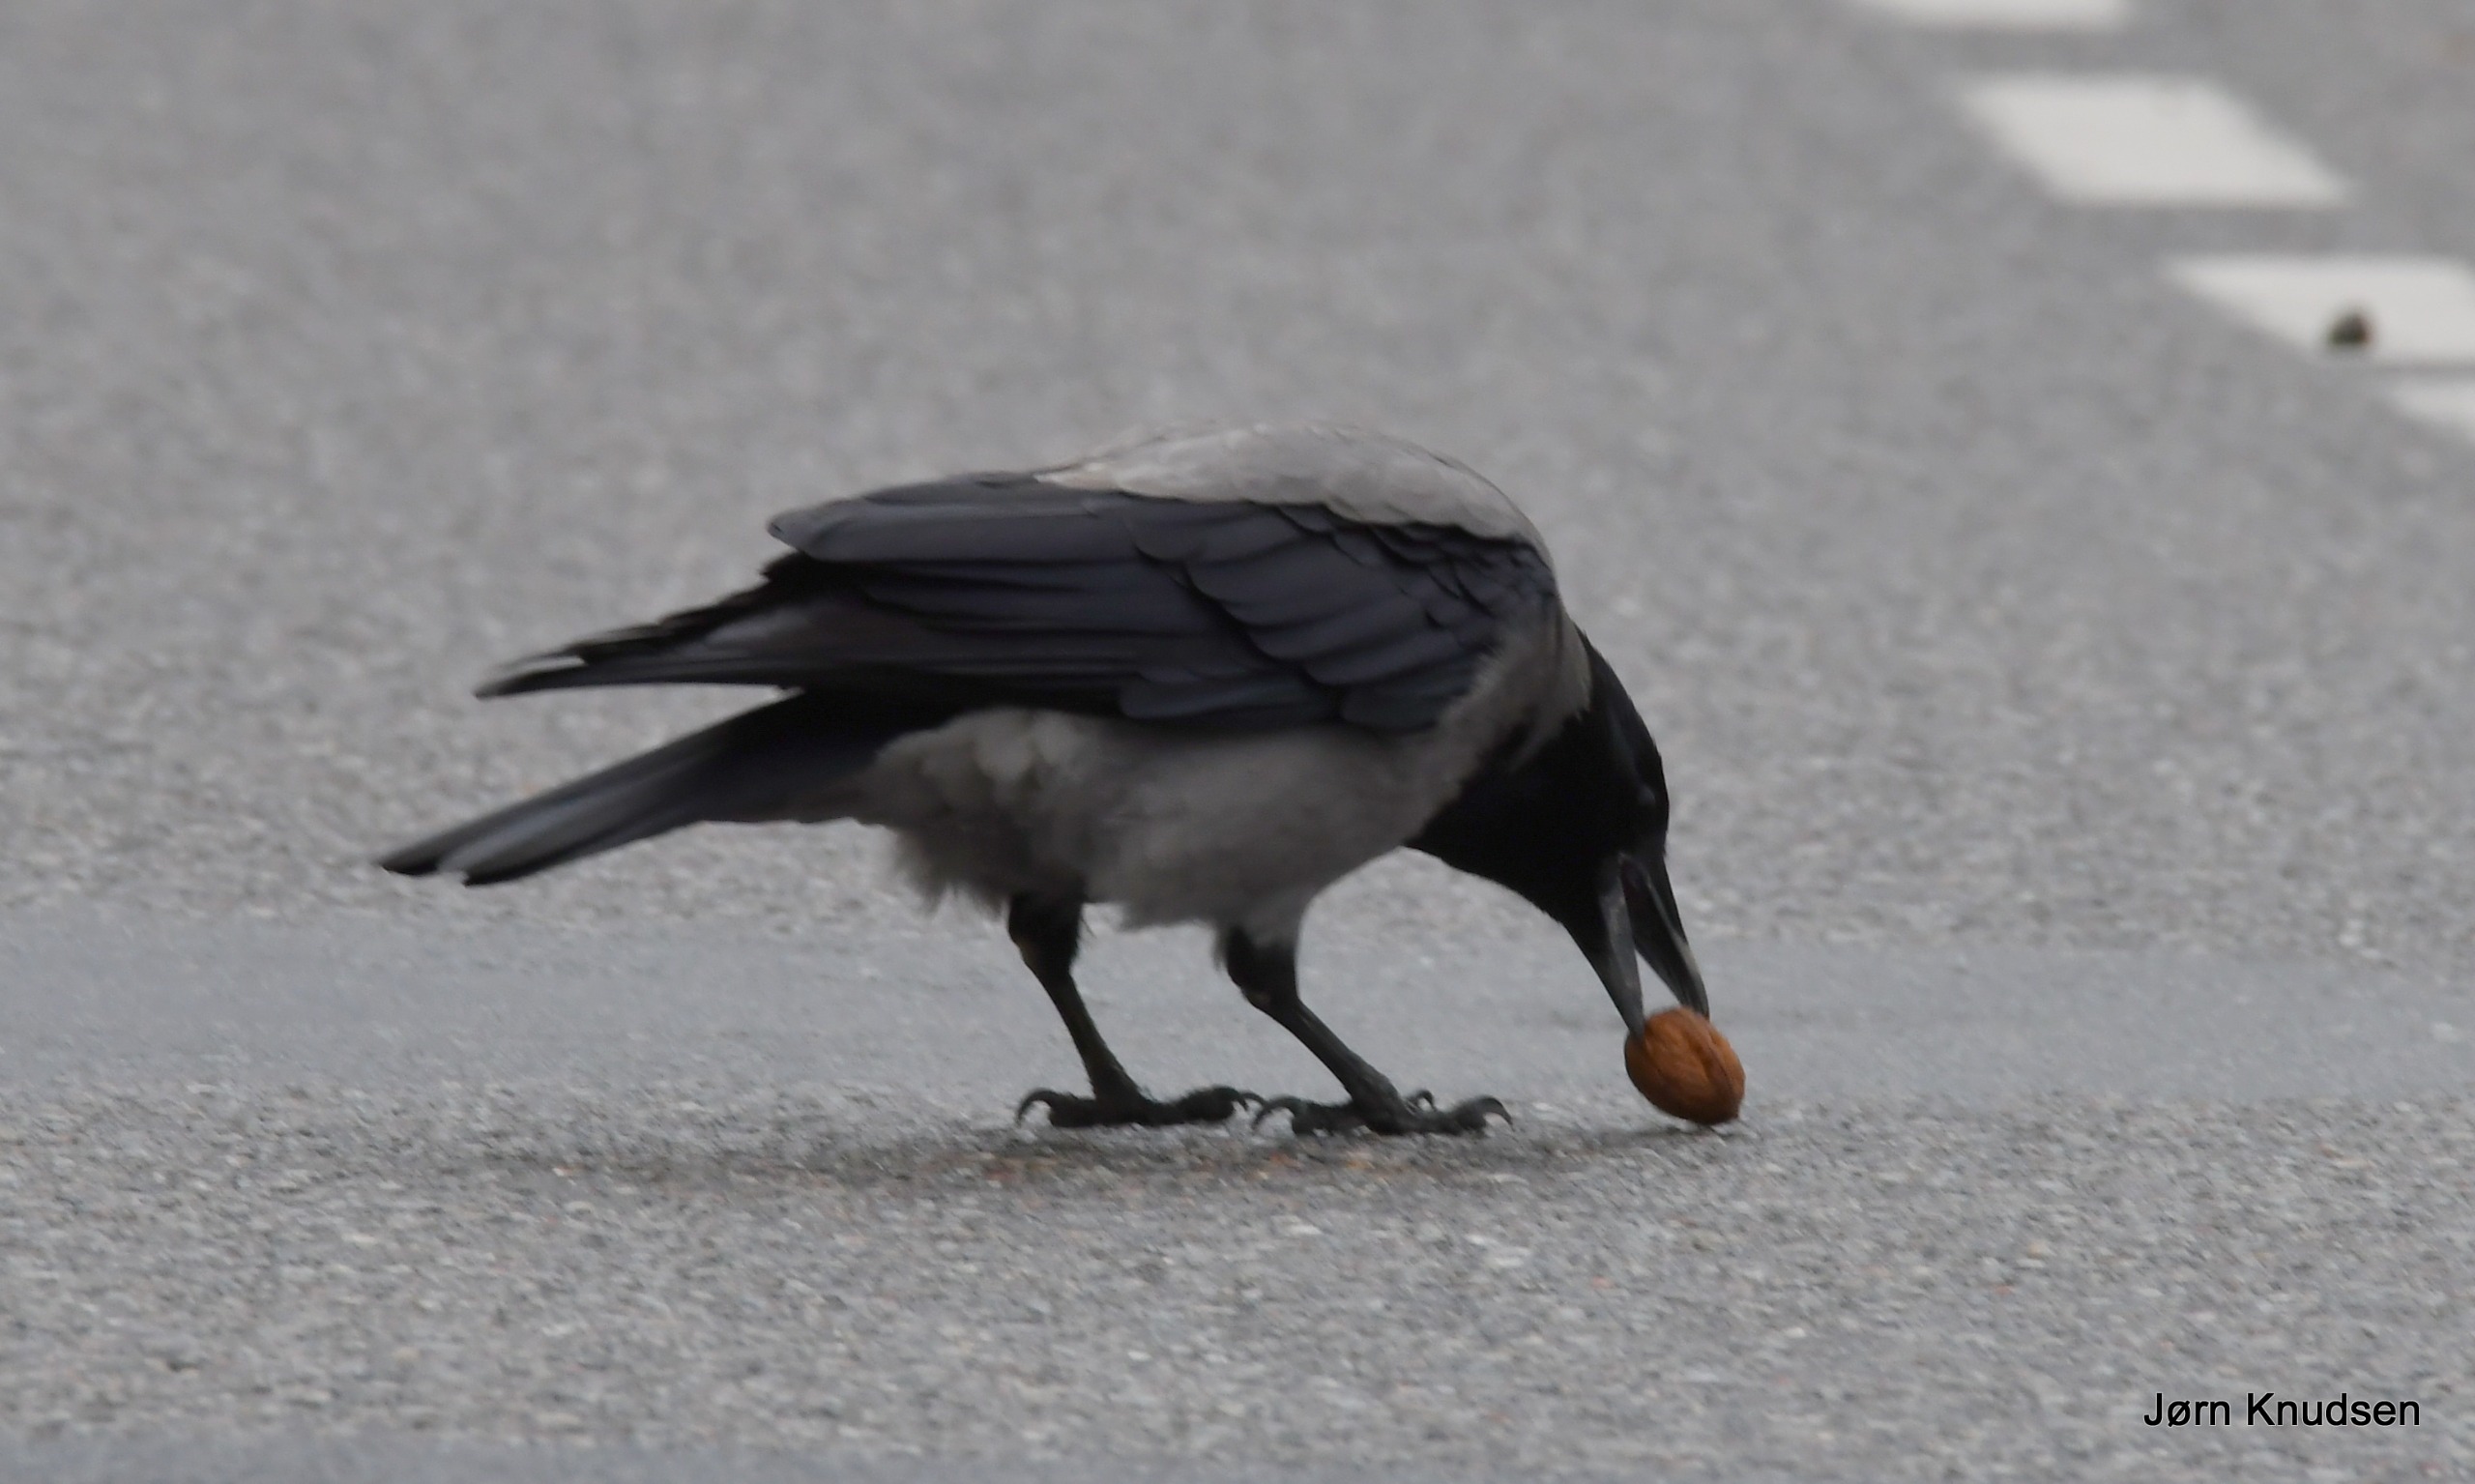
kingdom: Animalia
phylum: Chordata
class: Aves
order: Passeriformes
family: Corvidae
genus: Corvus
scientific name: Corvus cornix
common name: Gråkrage
